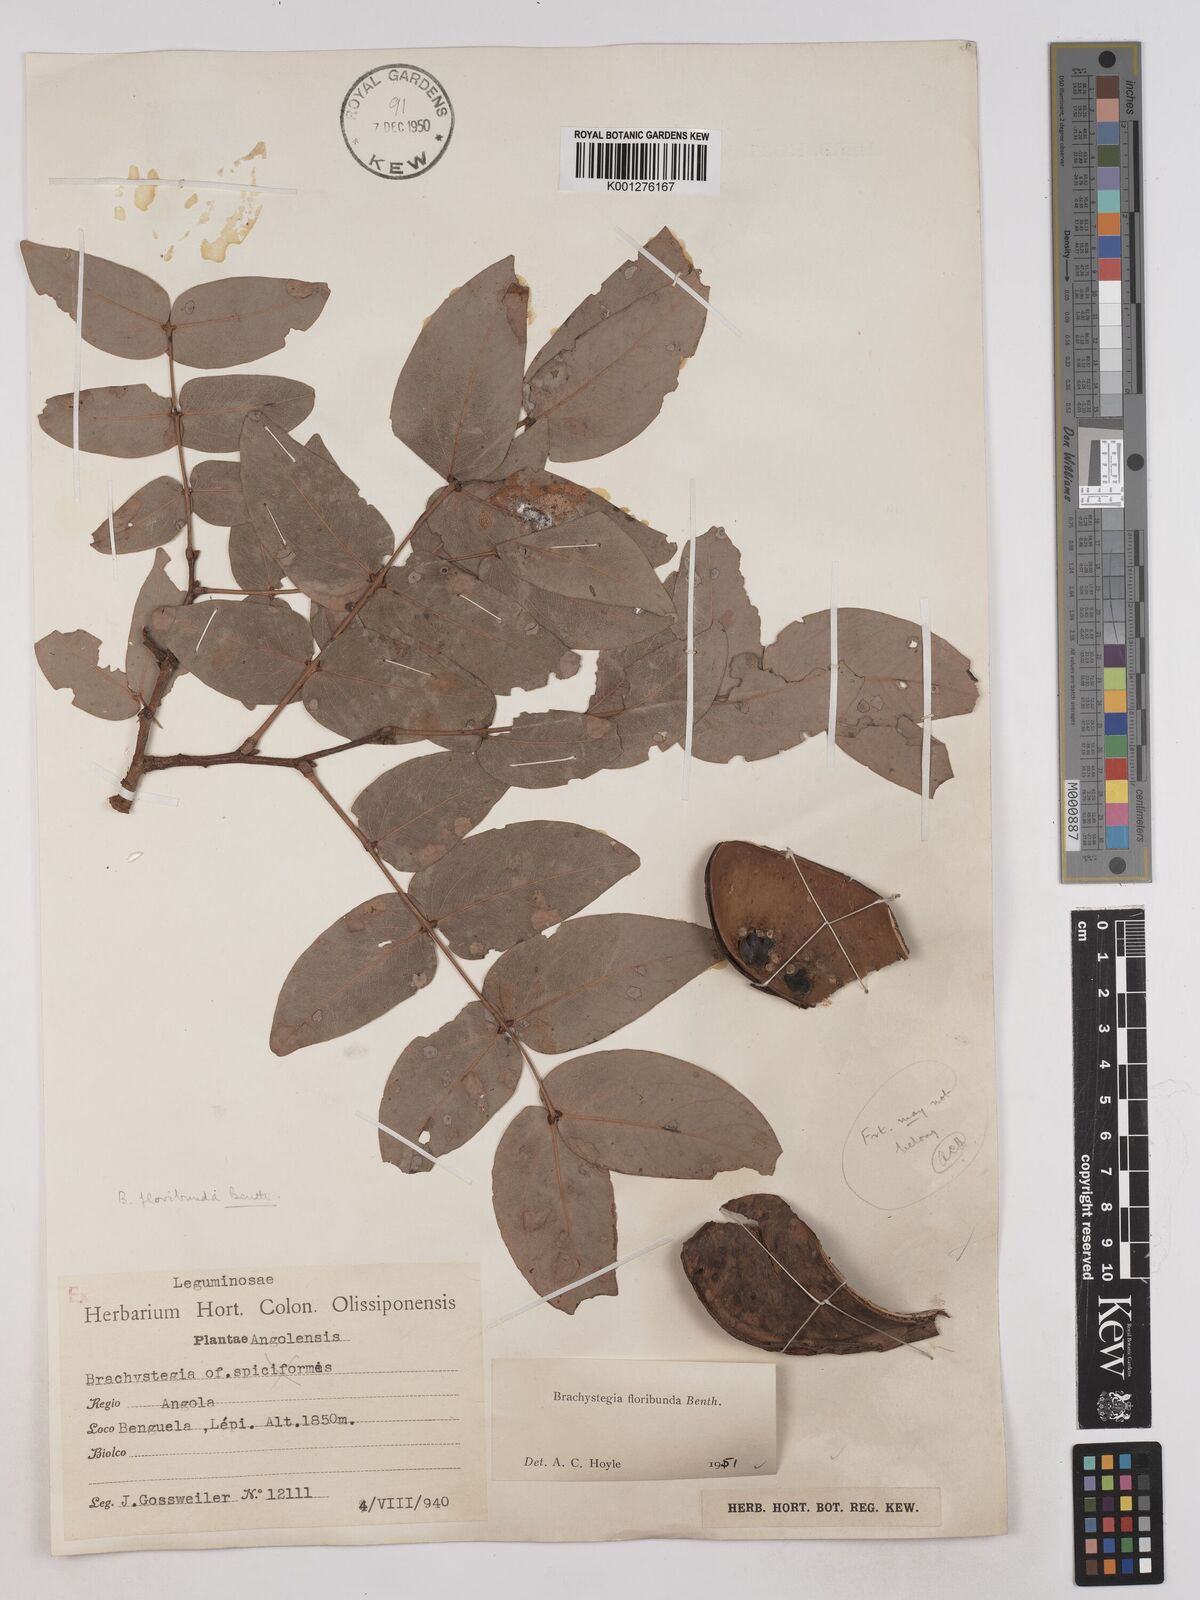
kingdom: Plantae
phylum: Tracheophyta
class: Magnoliopsida
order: Fabales
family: Fabaceae
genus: Brachystegia
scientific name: Brachystegia floribunda
